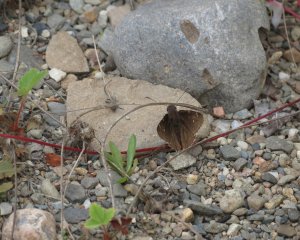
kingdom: Animalia
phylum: Arthropoda
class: Insecta
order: Lepidoptera
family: Hesperiidae
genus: Autochton
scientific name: Autochton
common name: Northern Cloudywing
